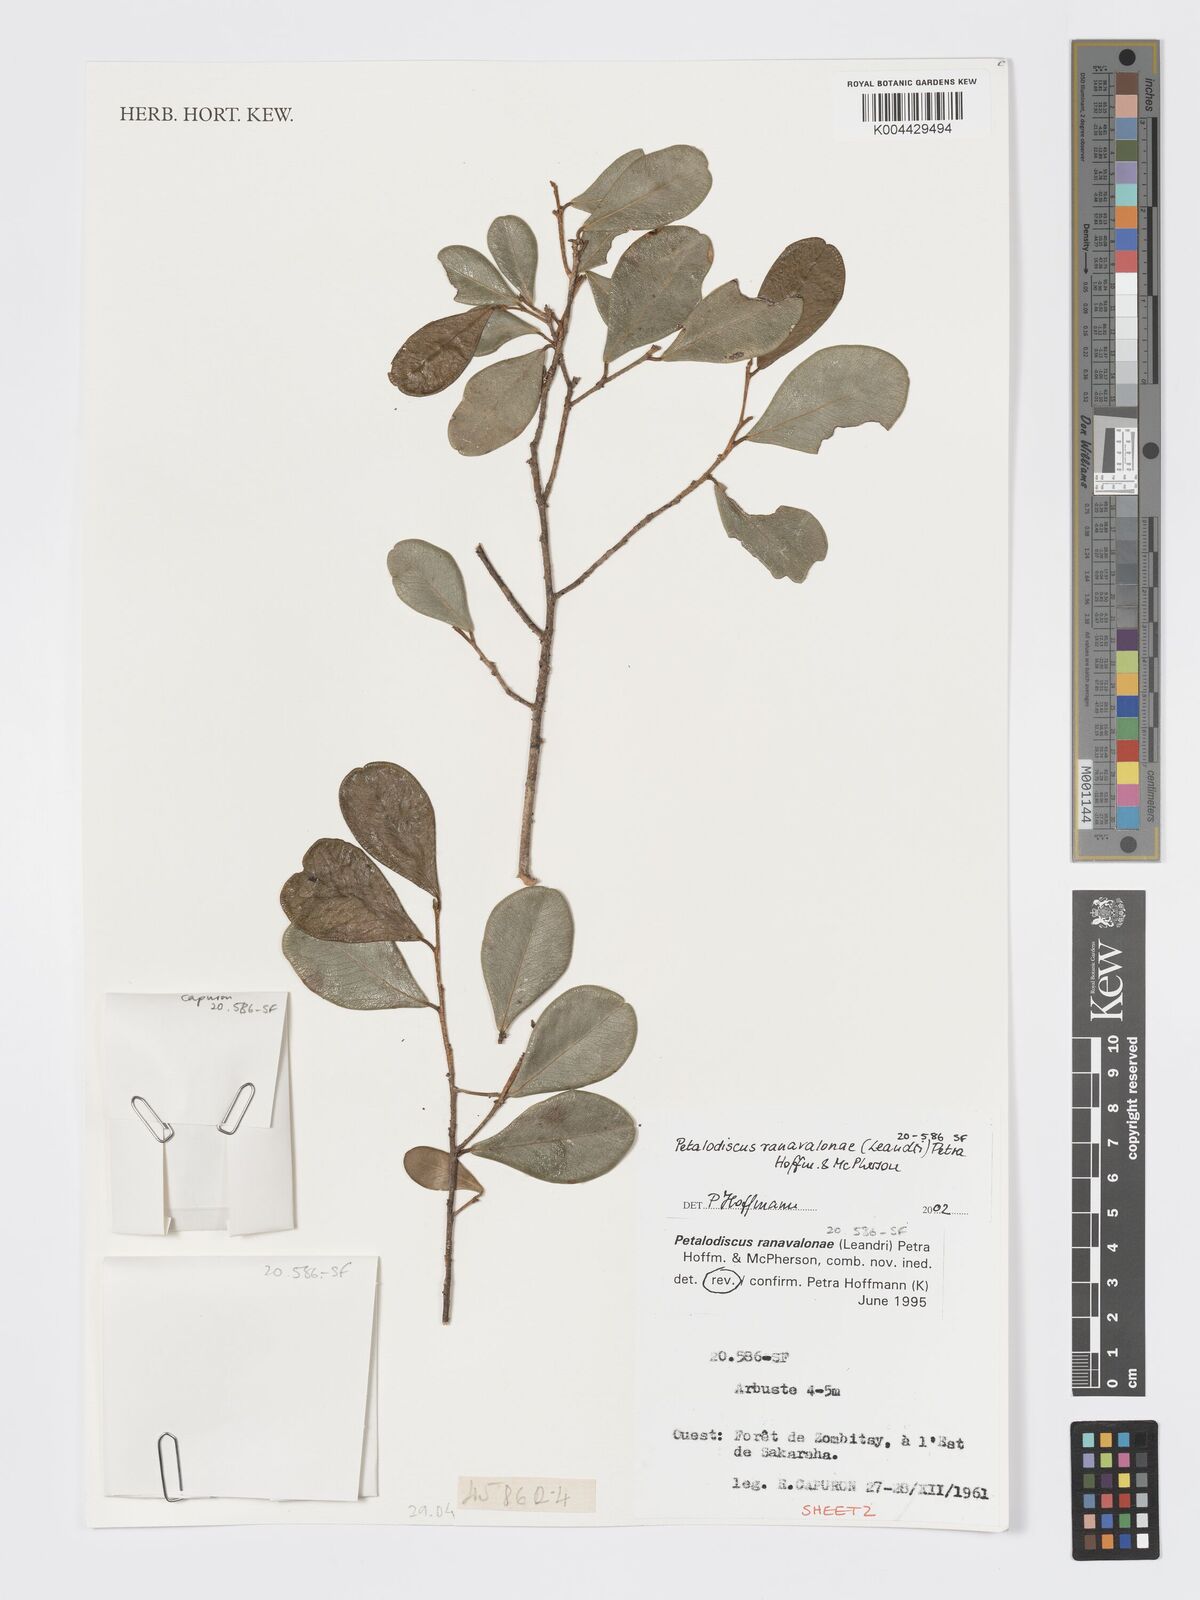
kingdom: Plantae
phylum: Tracheophyta
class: Magnoliopsida
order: Malpighiales
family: Phyllanthaceae
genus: Wielandia
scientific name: Wielandia ranavalonae
